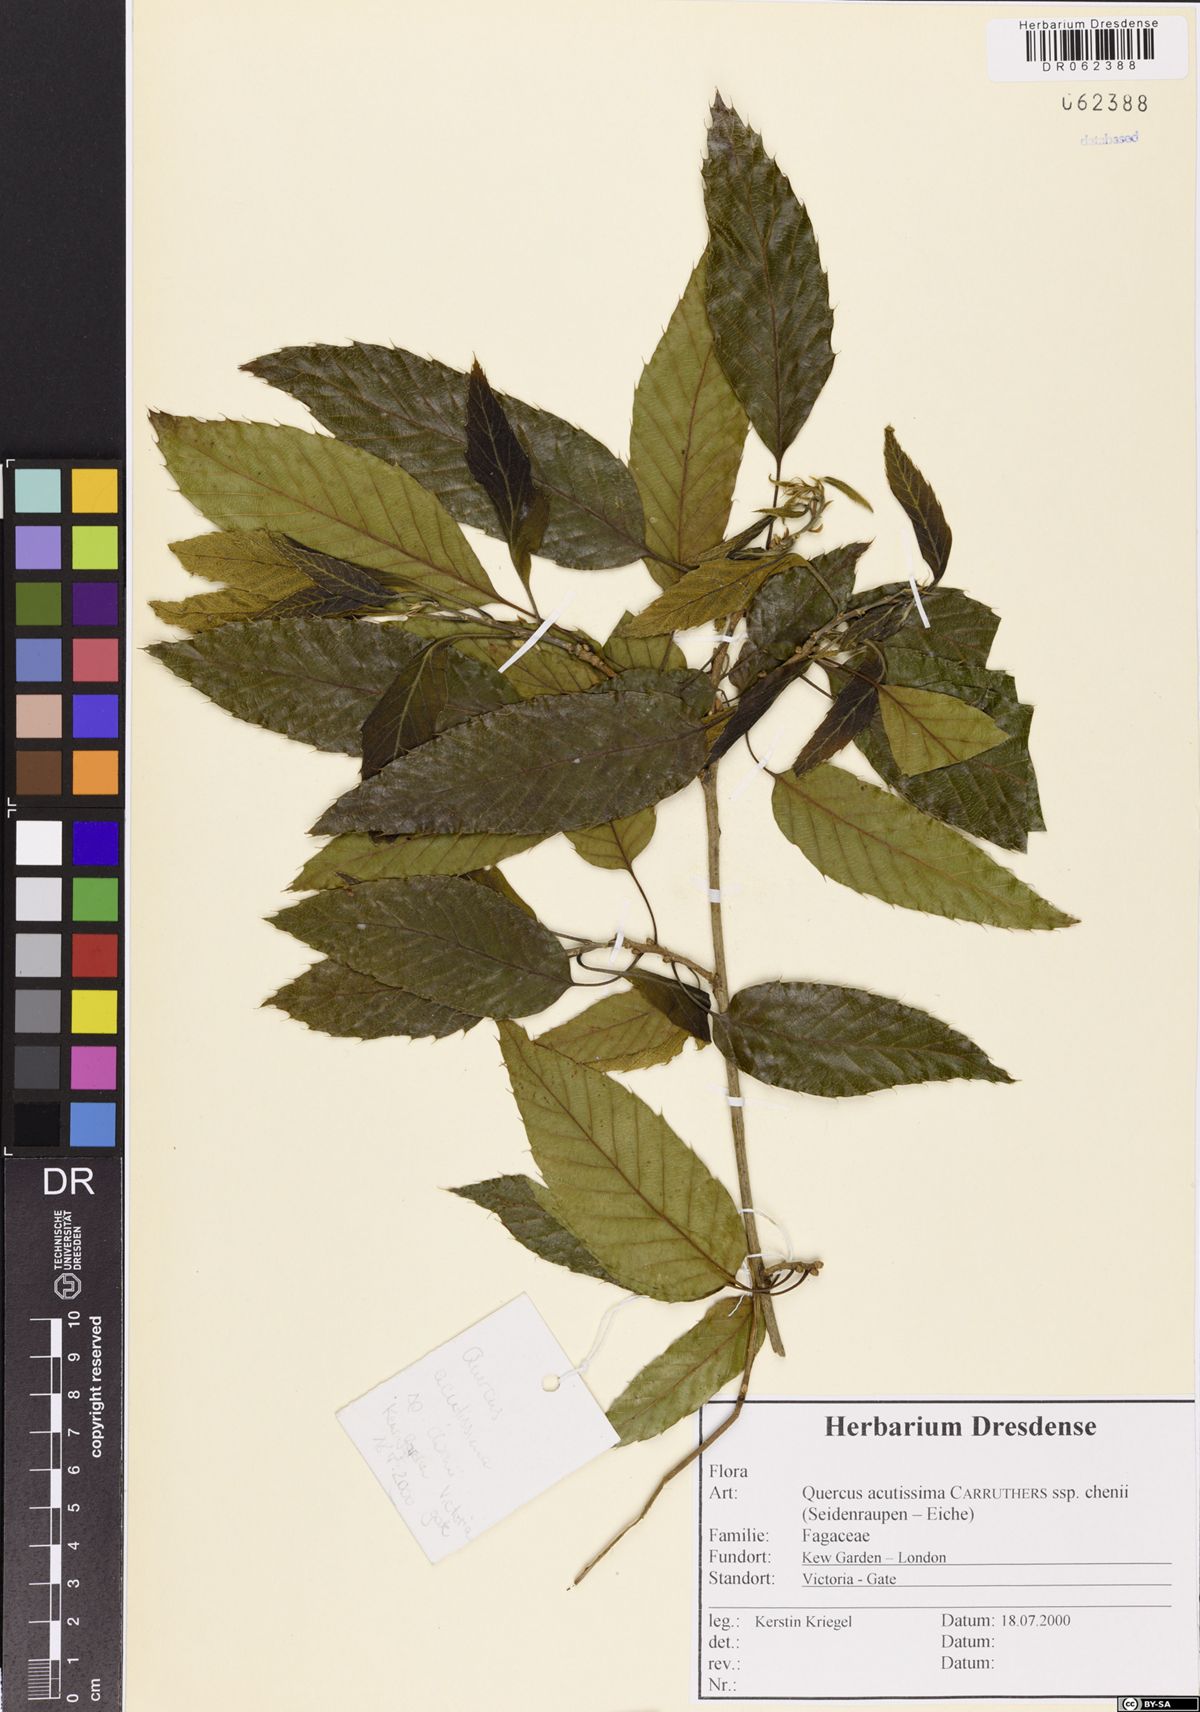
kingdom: Plantae
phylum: Tracheophyta
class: Magnoliopsida
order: Fagales
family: Fagaceae
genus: Quercus
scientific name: Quercus acutissima
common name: Sawtooth oak
